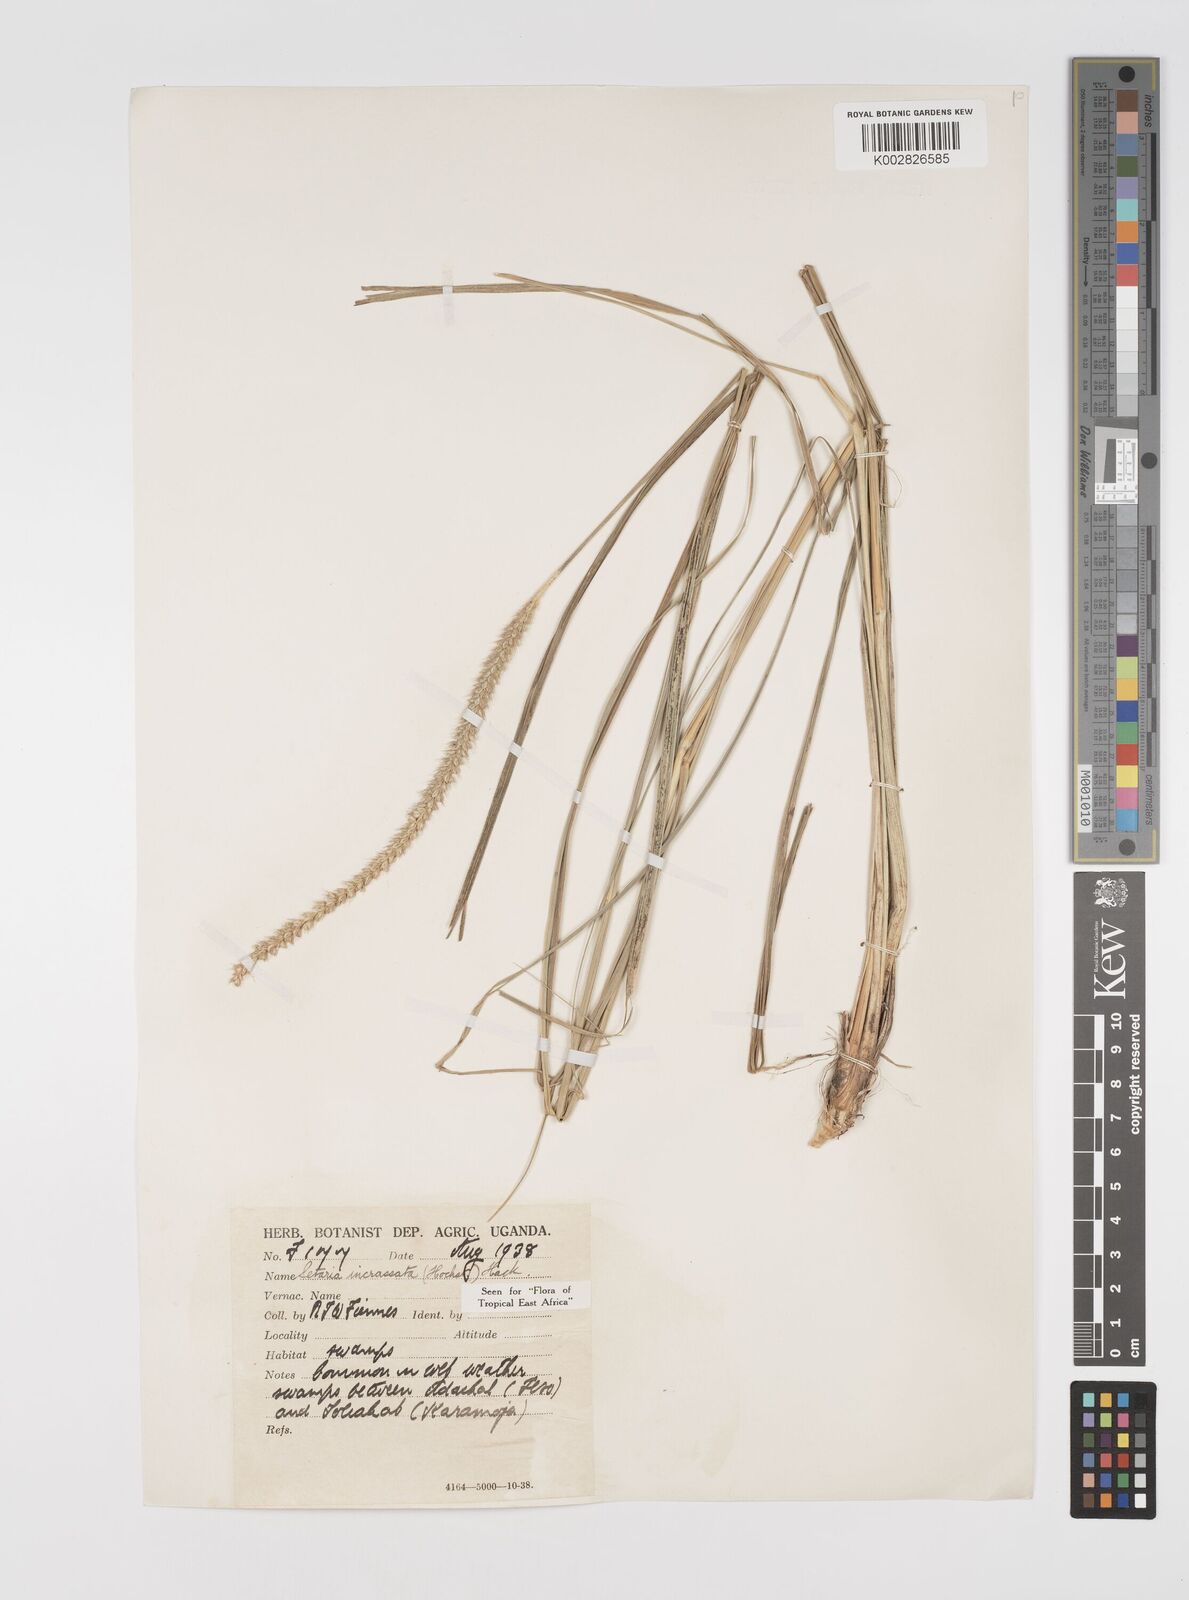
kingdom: Plantae
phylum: Tracheophyta
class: Liliopsida
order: Poales
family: Poaceae
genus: Setaria
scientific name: Setaria incrassata
